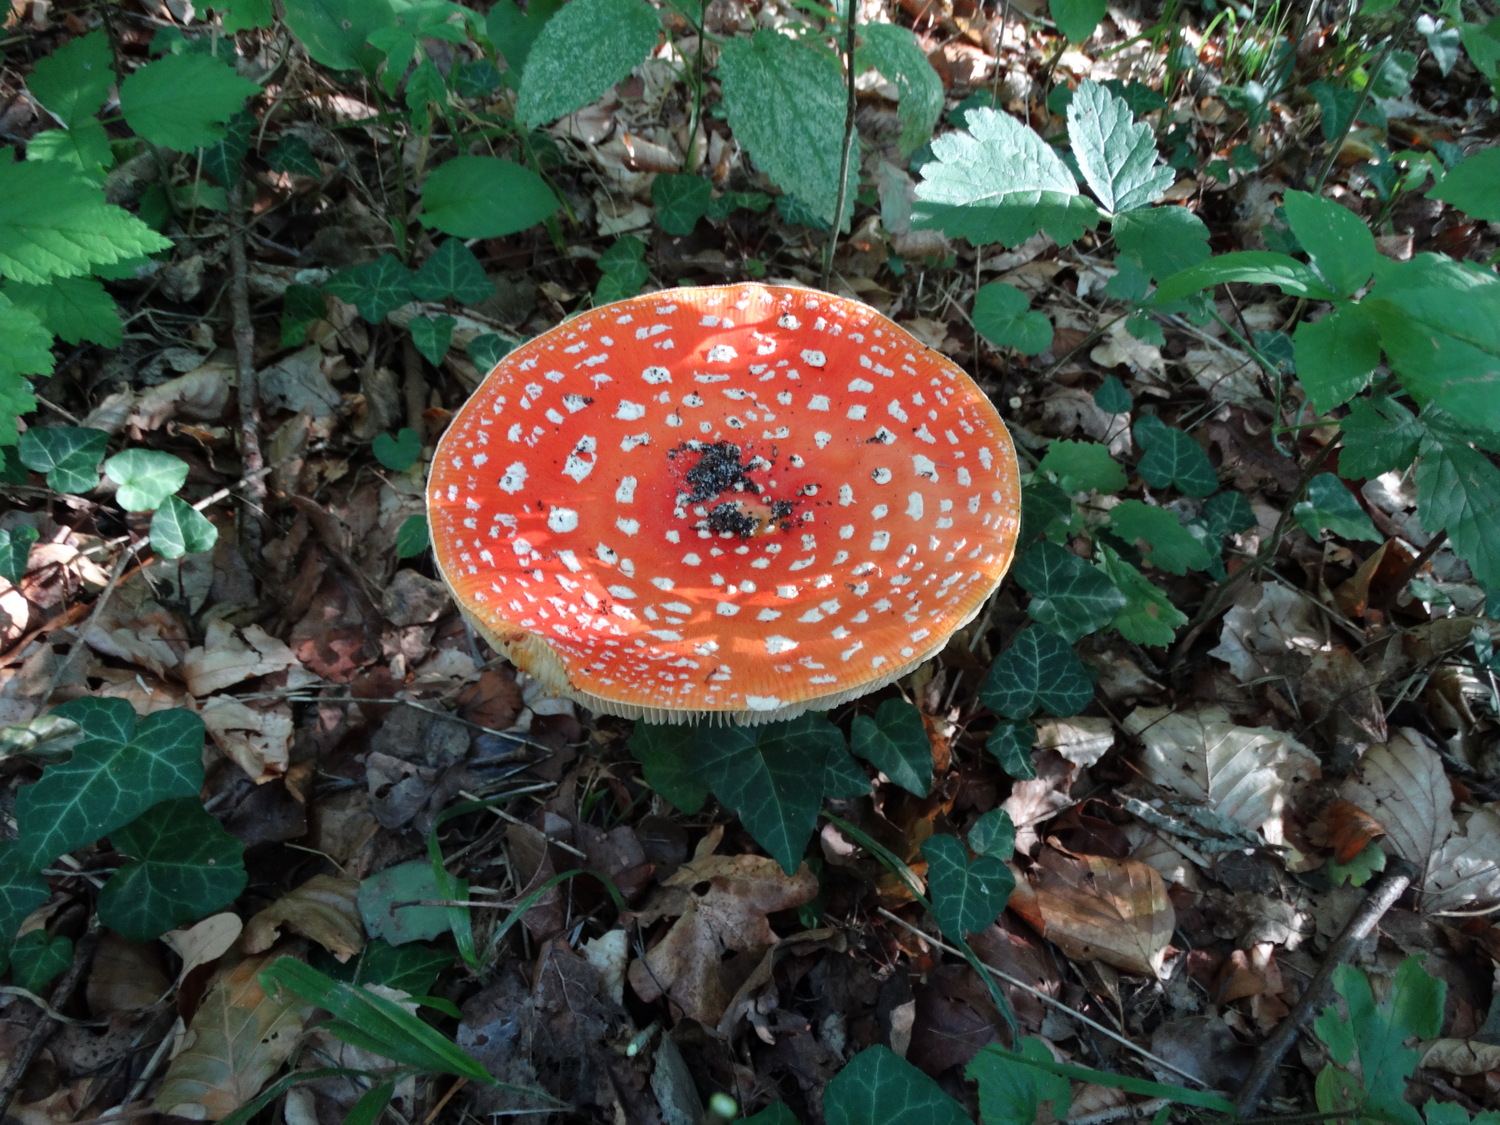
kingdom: Fungi
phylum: Basidiomycota
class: Agaricomycetes
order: Agaricales
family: Amanitaceae
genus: Amanita
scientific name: Amanita muscaria
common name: rød fluesvamp
